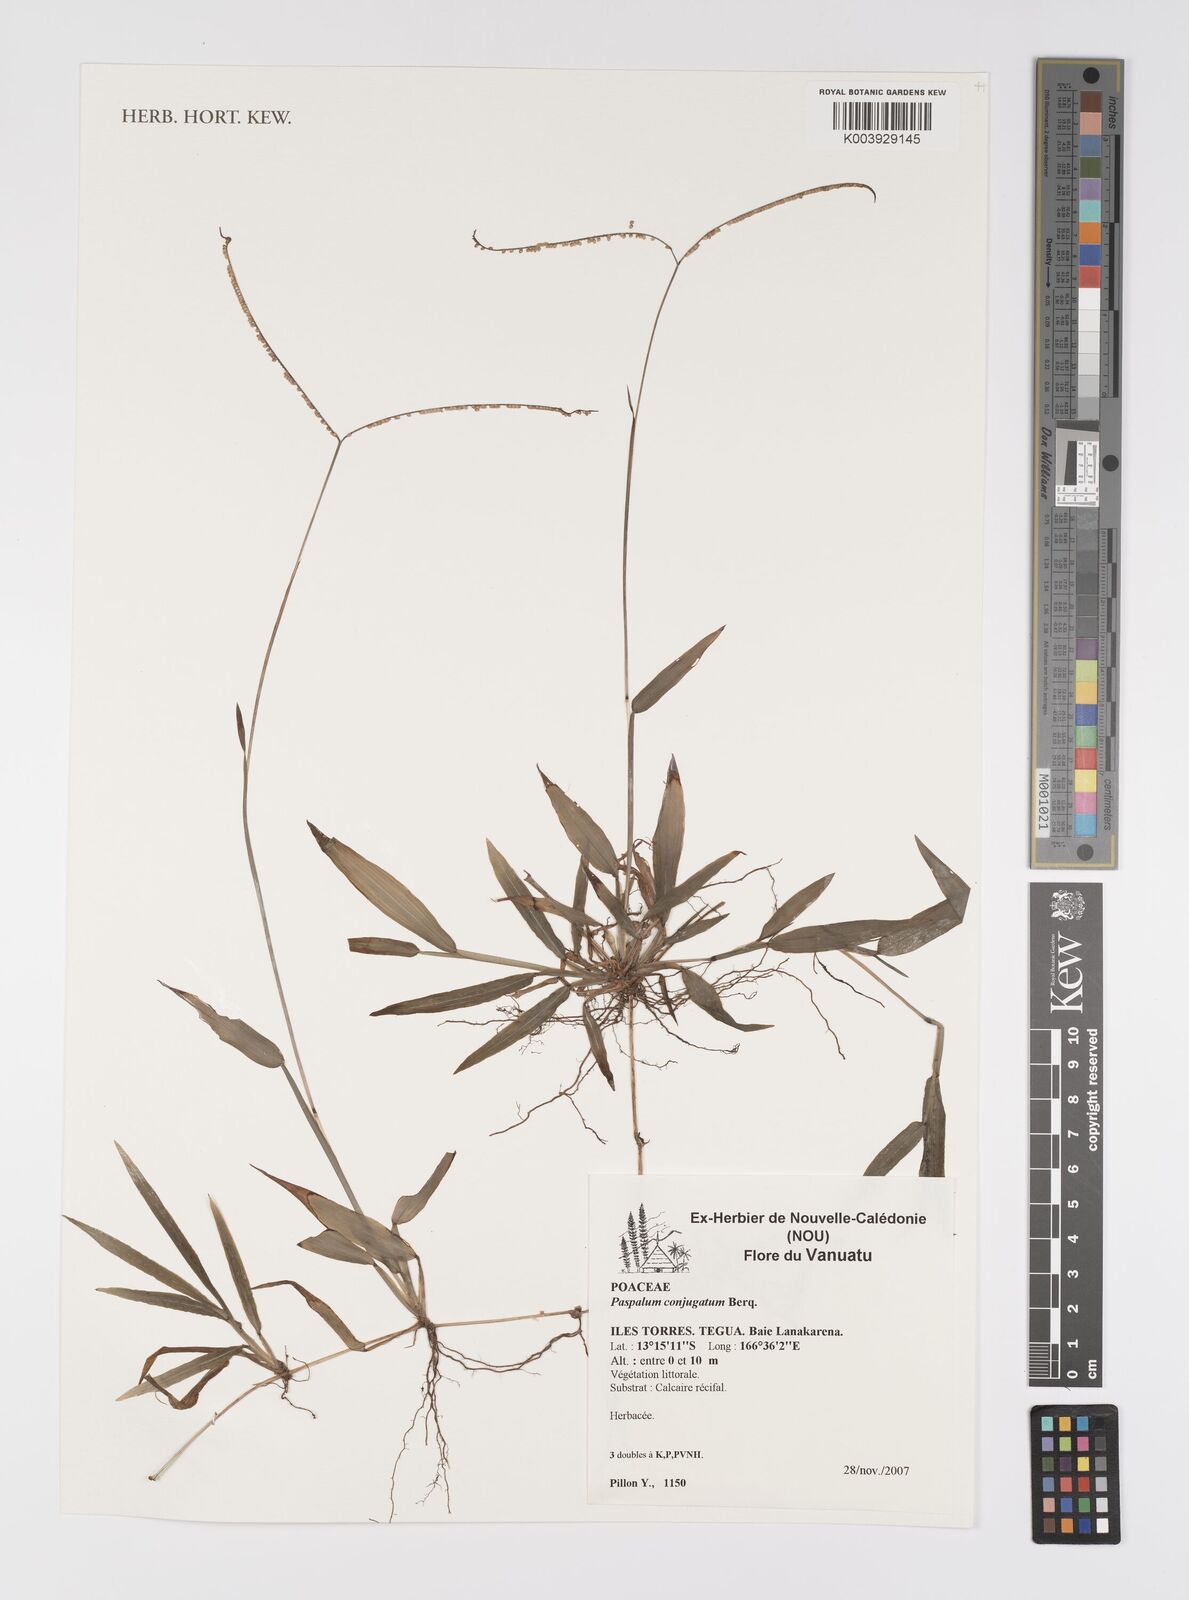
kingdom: Plantae
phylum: Tracheophyta
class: Liliopsida
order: Poales
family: Poaceae
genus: Paspalum
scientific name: Paspalum conjugatum
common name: Hilograss
